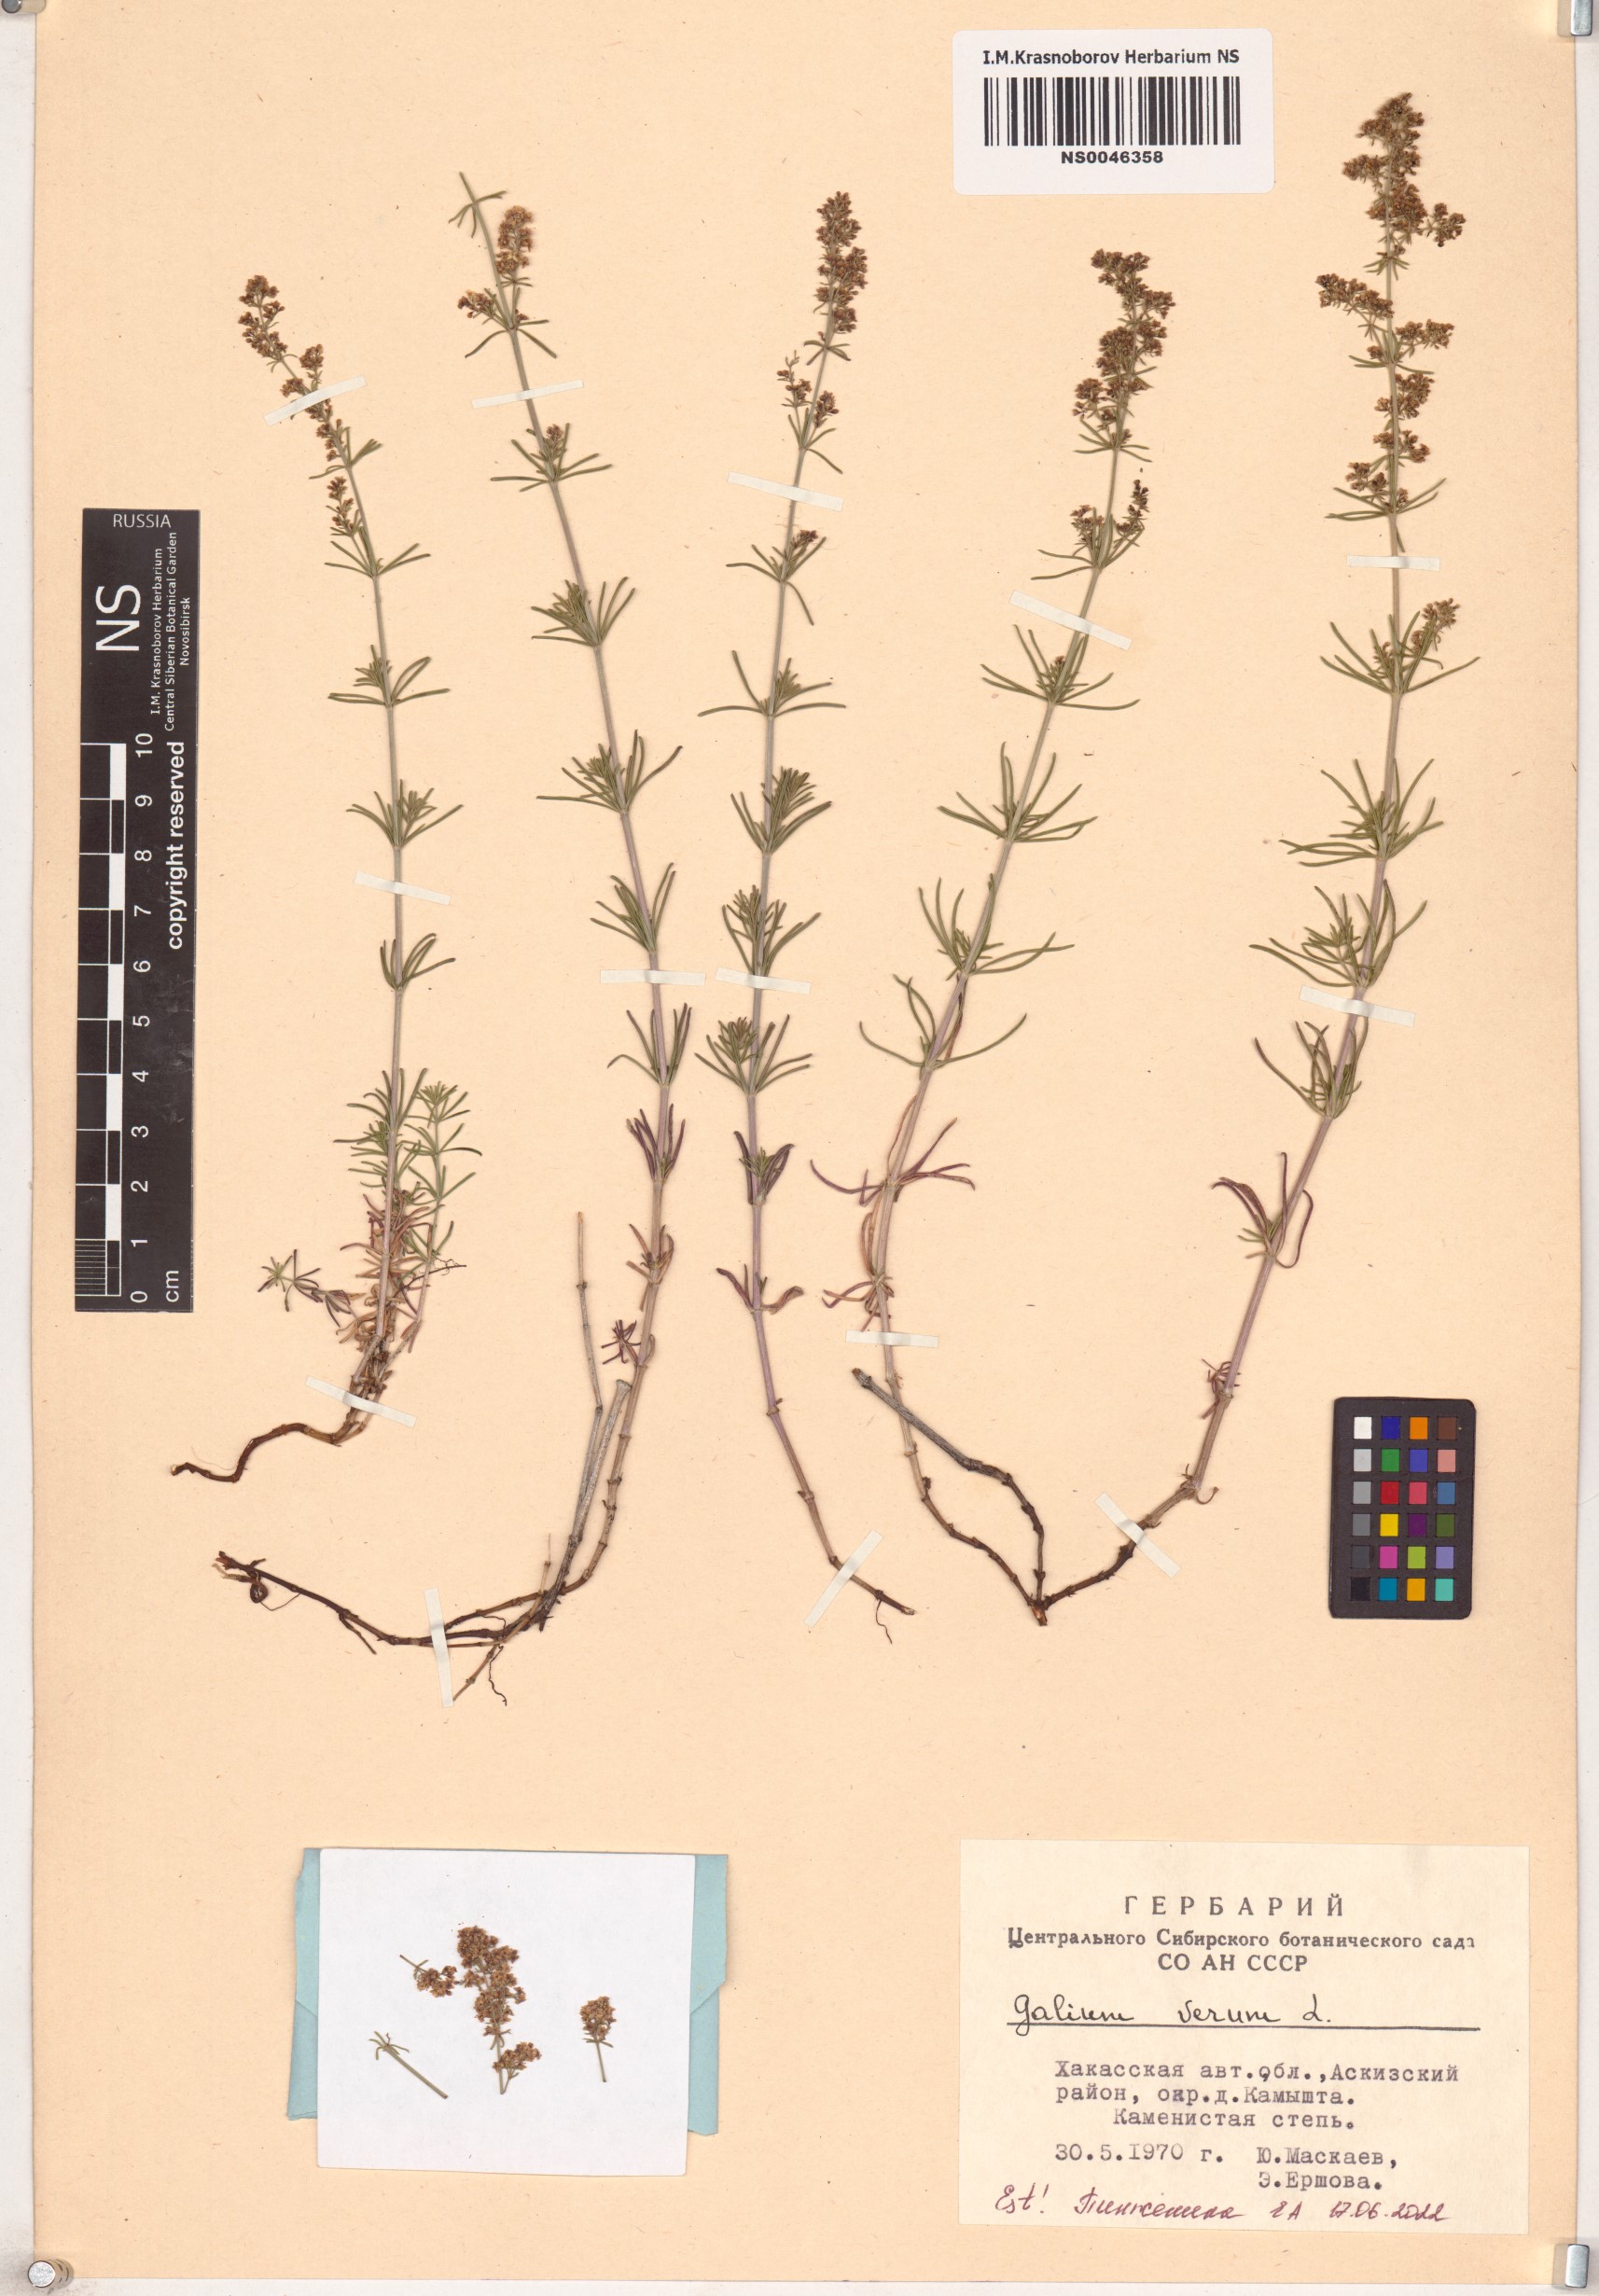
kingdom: Plantae
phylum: Tracheophyta
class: Magnoliopsida
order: Gentianales
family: Rubiaceae
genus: Galium
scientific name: Galium verum
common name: Lady's bedstraw
